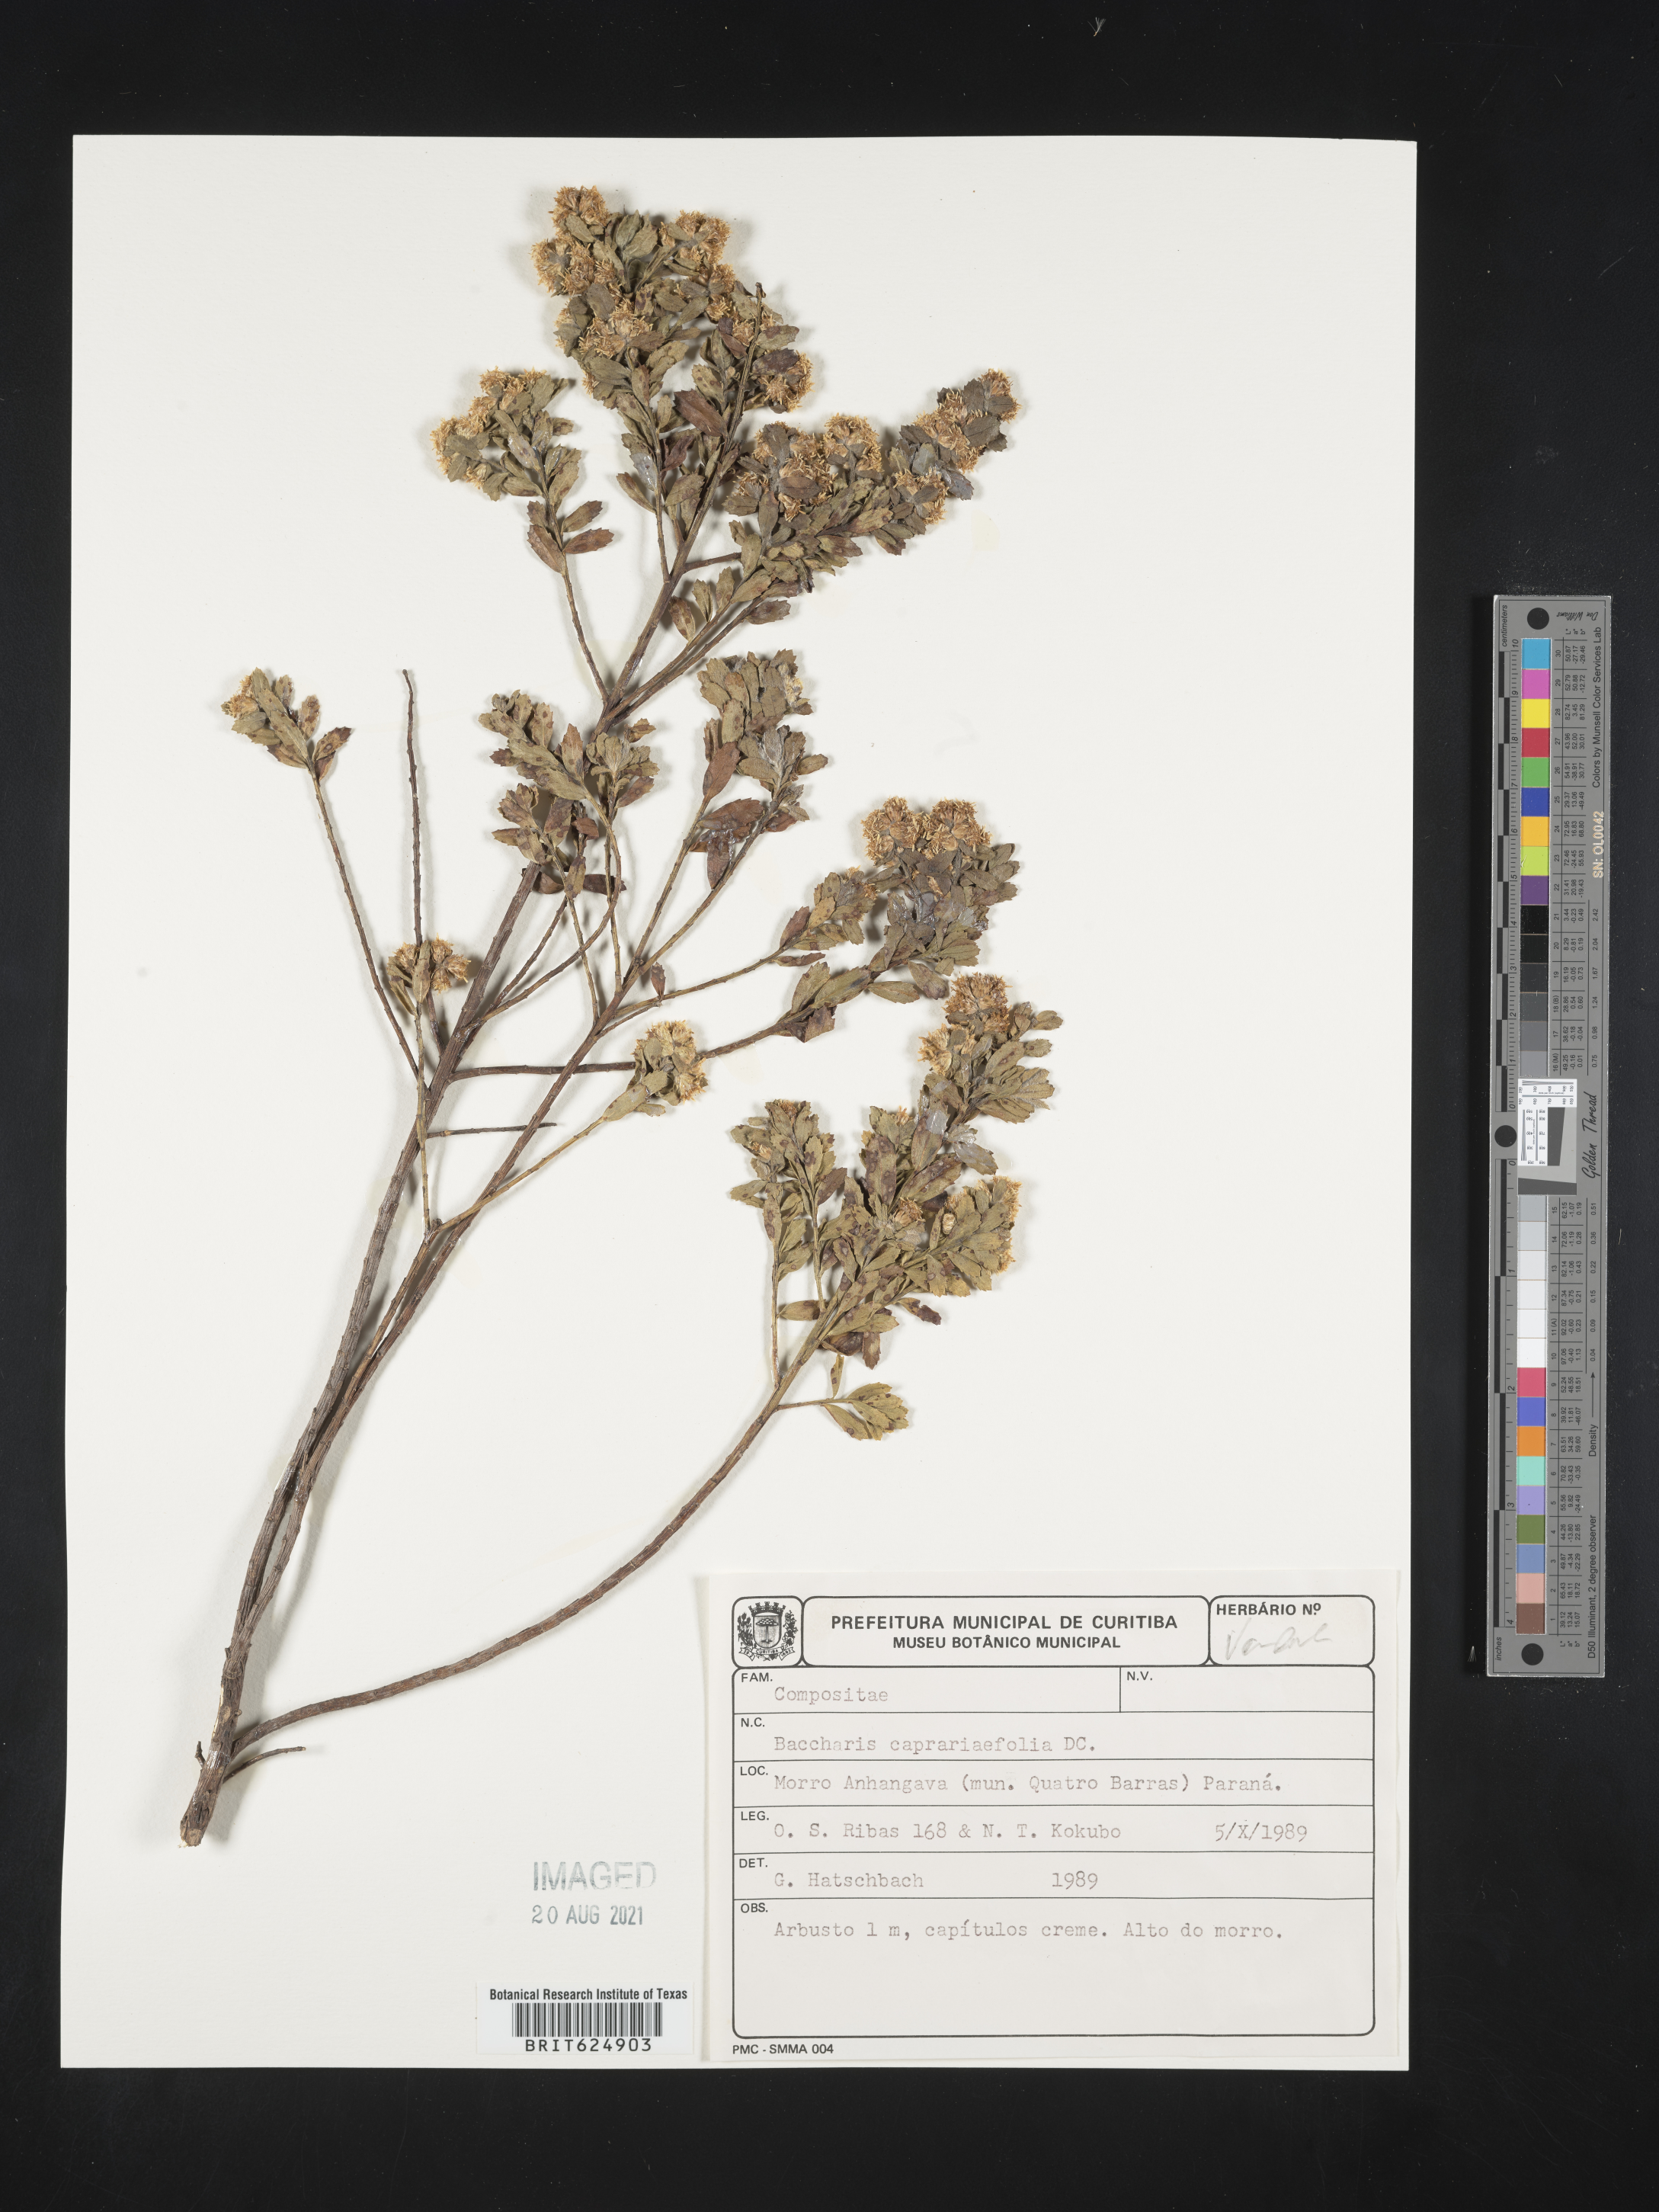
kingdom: Plantae
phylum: Tracheophyta
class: Magnoliopsida
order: Asterales
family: Asteraceae
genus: Baccharis
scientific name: Baccharis caprariifolia
